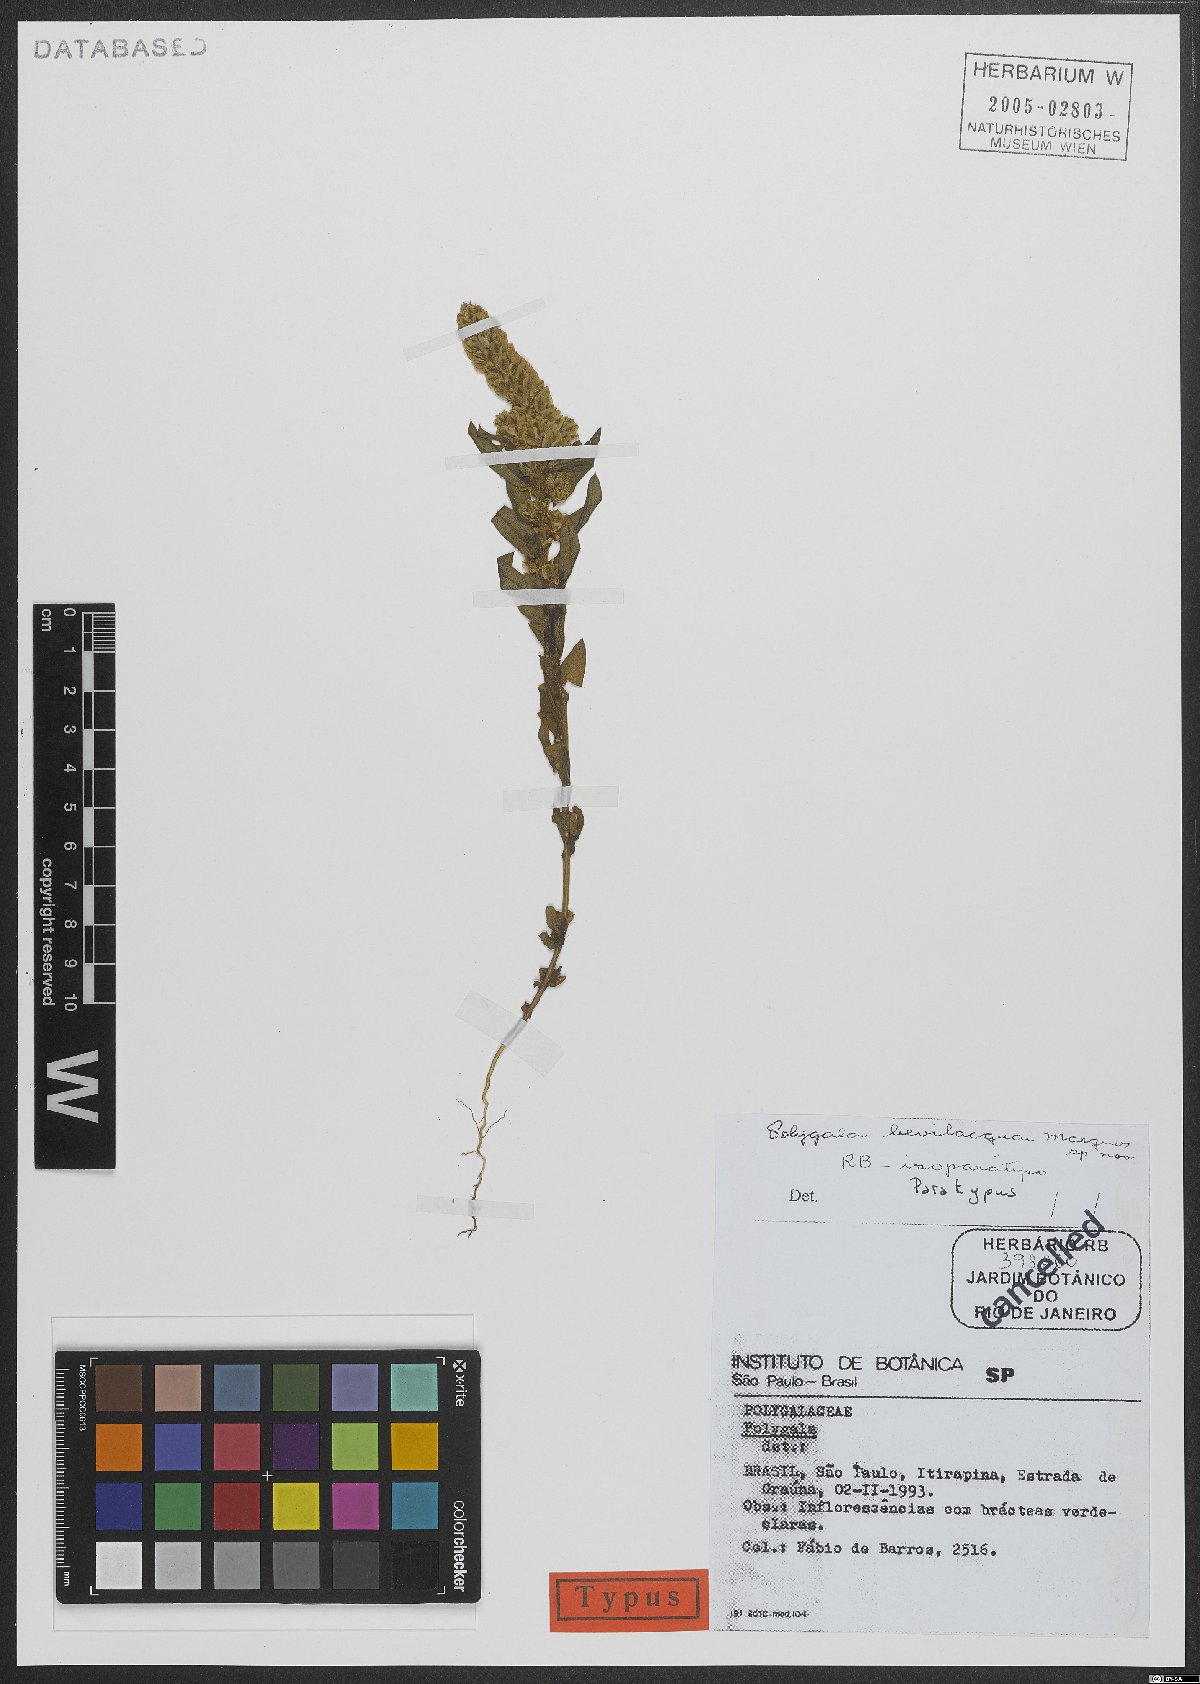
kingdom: Plantae
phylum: Tracheophyta
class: Magnoliopsida
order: Fabales
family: Polygalaceae
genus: Polygala
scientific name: Polygala bevilacquae
